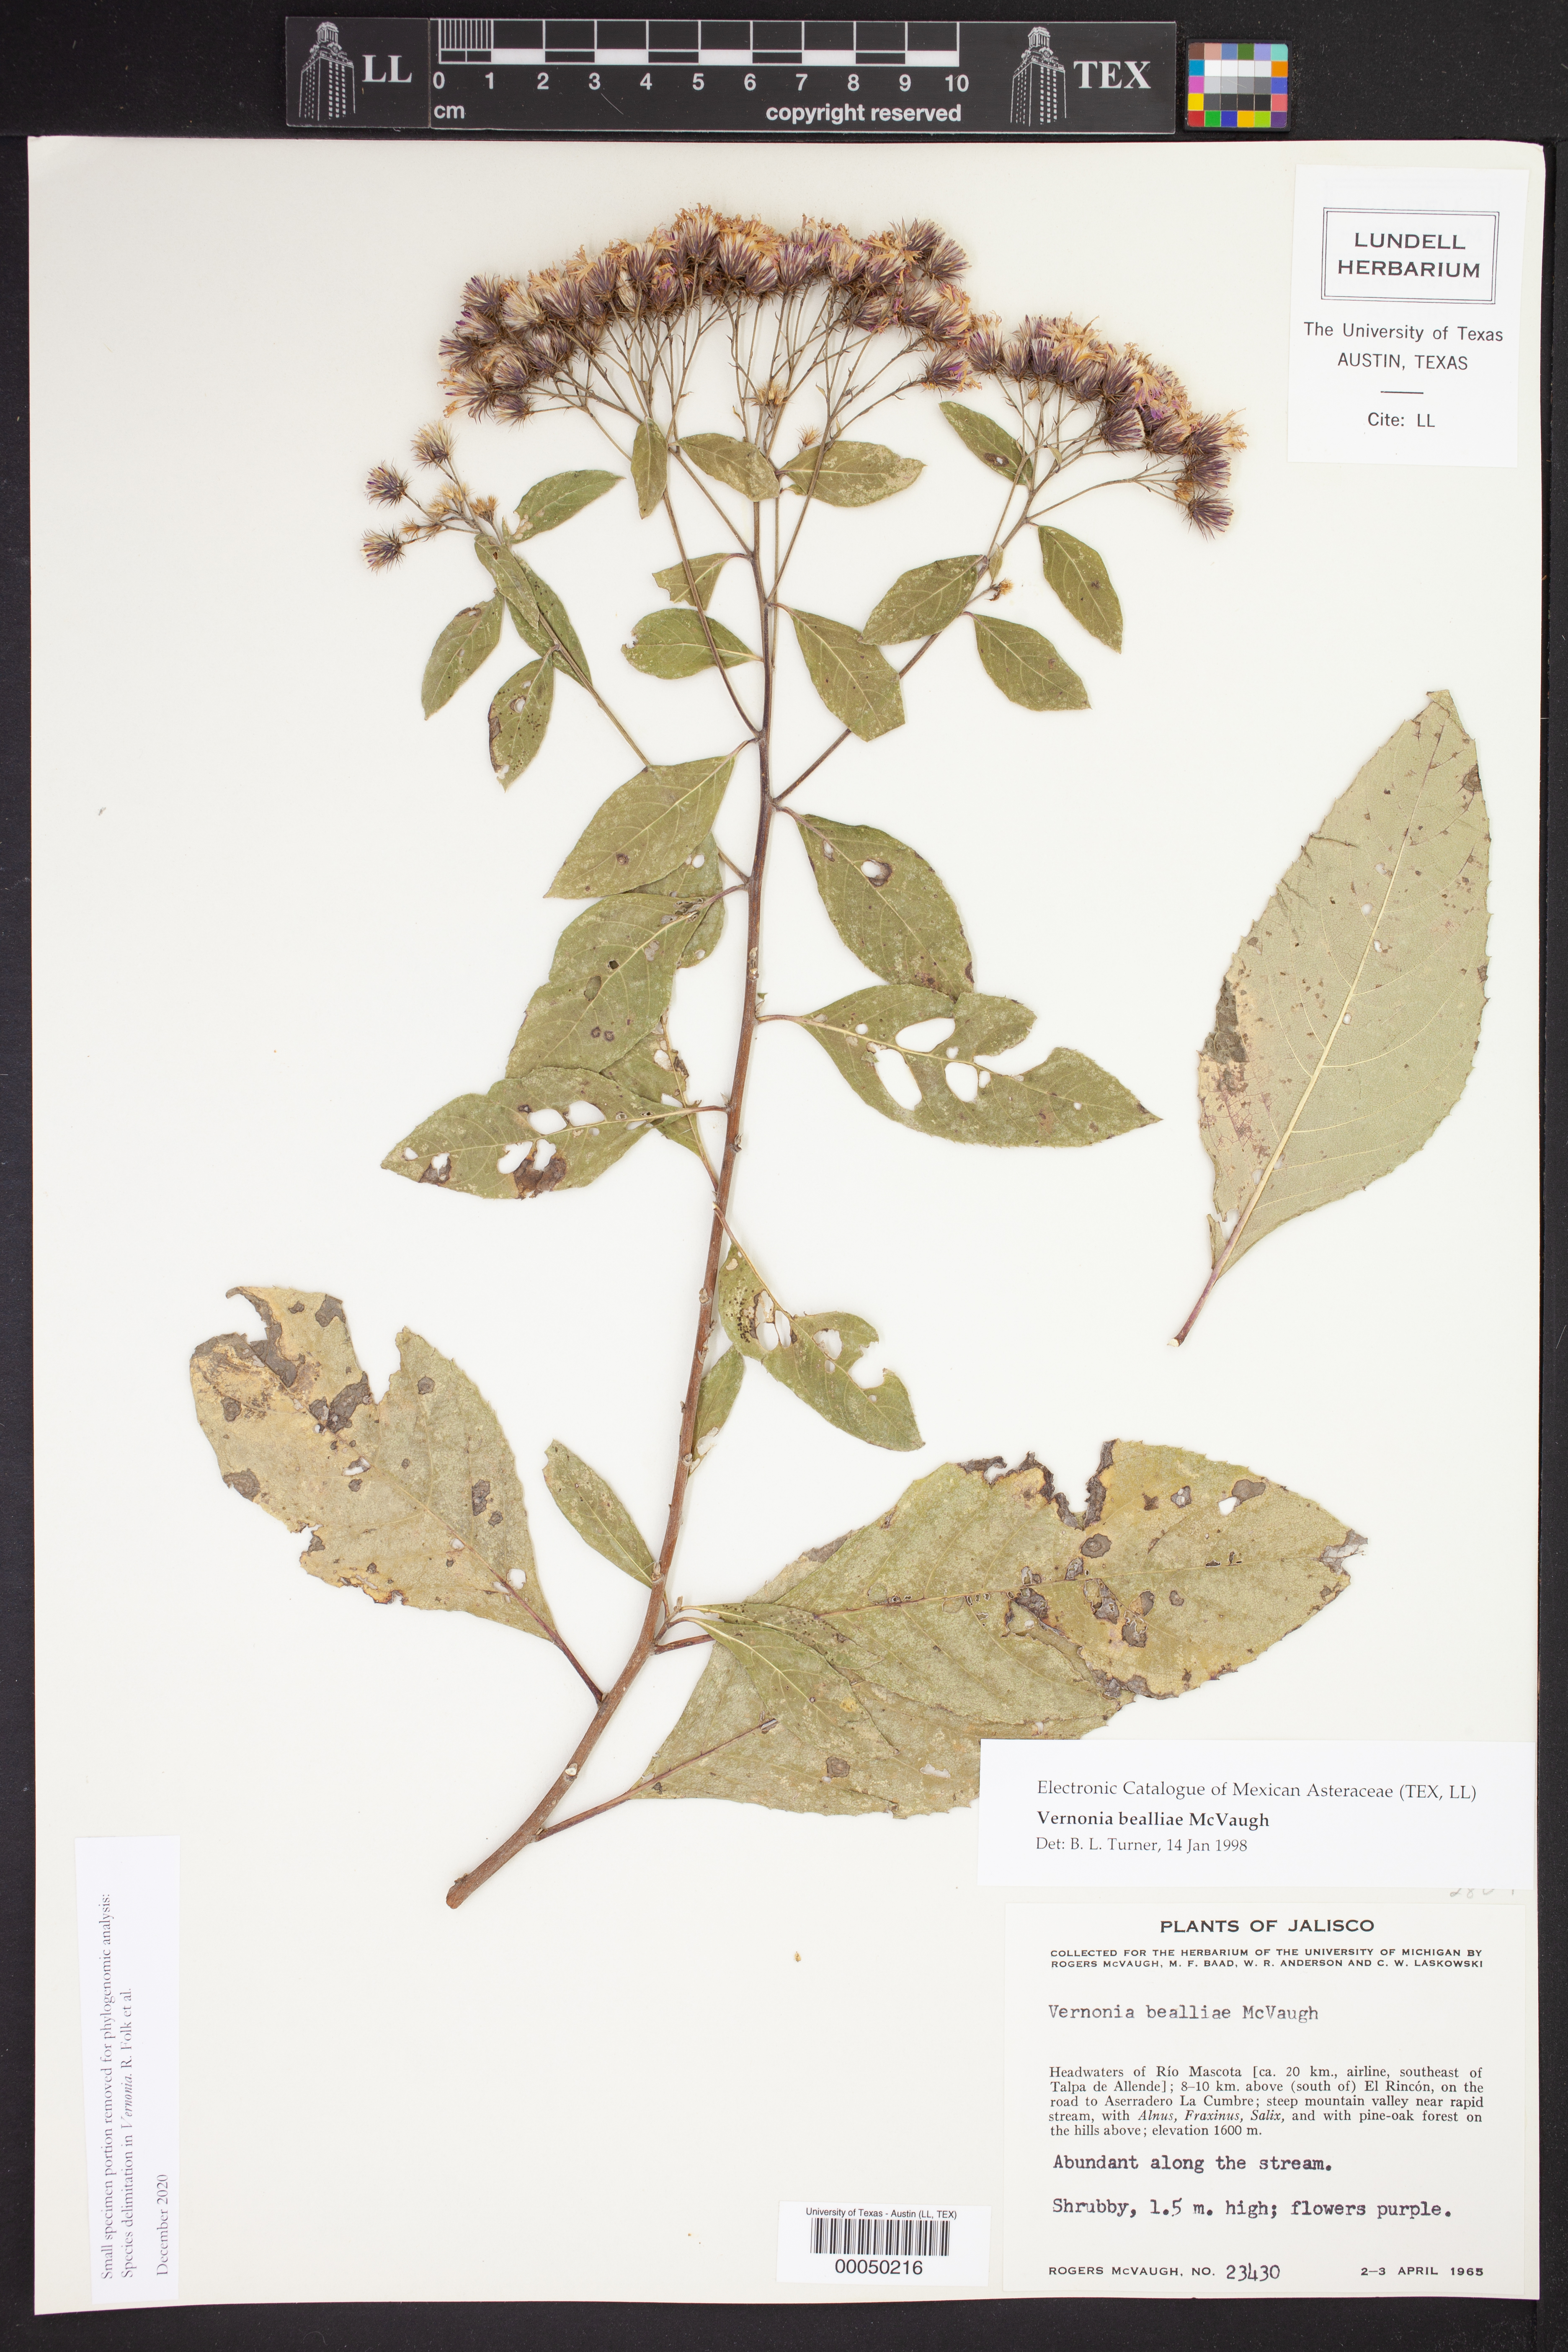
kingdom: Plantae
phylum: Tracheophyta
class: Magnoliopsida
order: Asterales
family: Asteraceae
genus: Vernonia
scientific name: Vernonia
